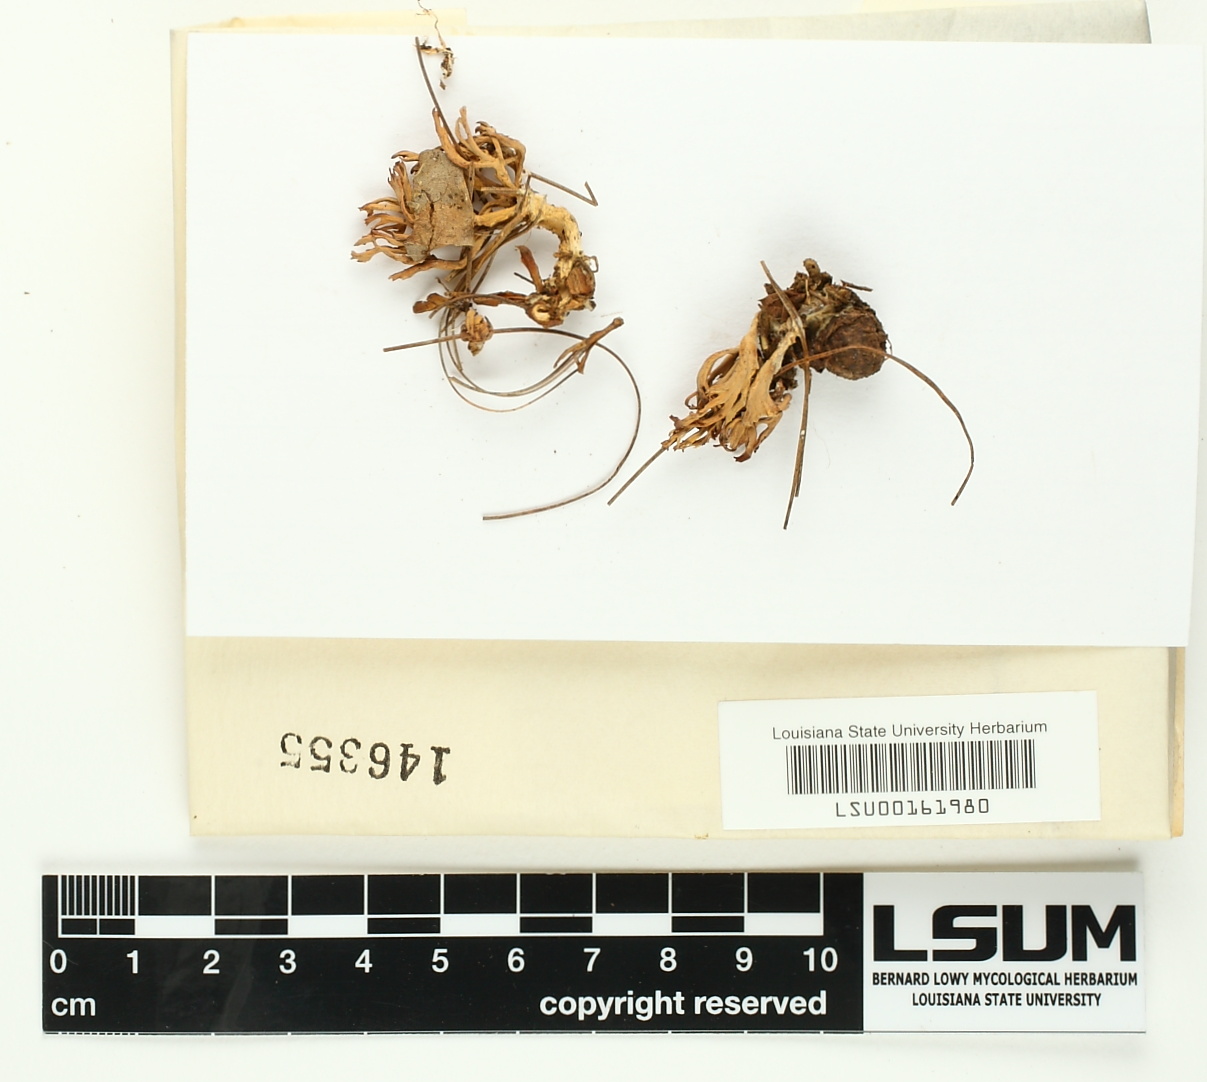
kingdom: Fungi
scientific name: Fungi
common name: Fungi
